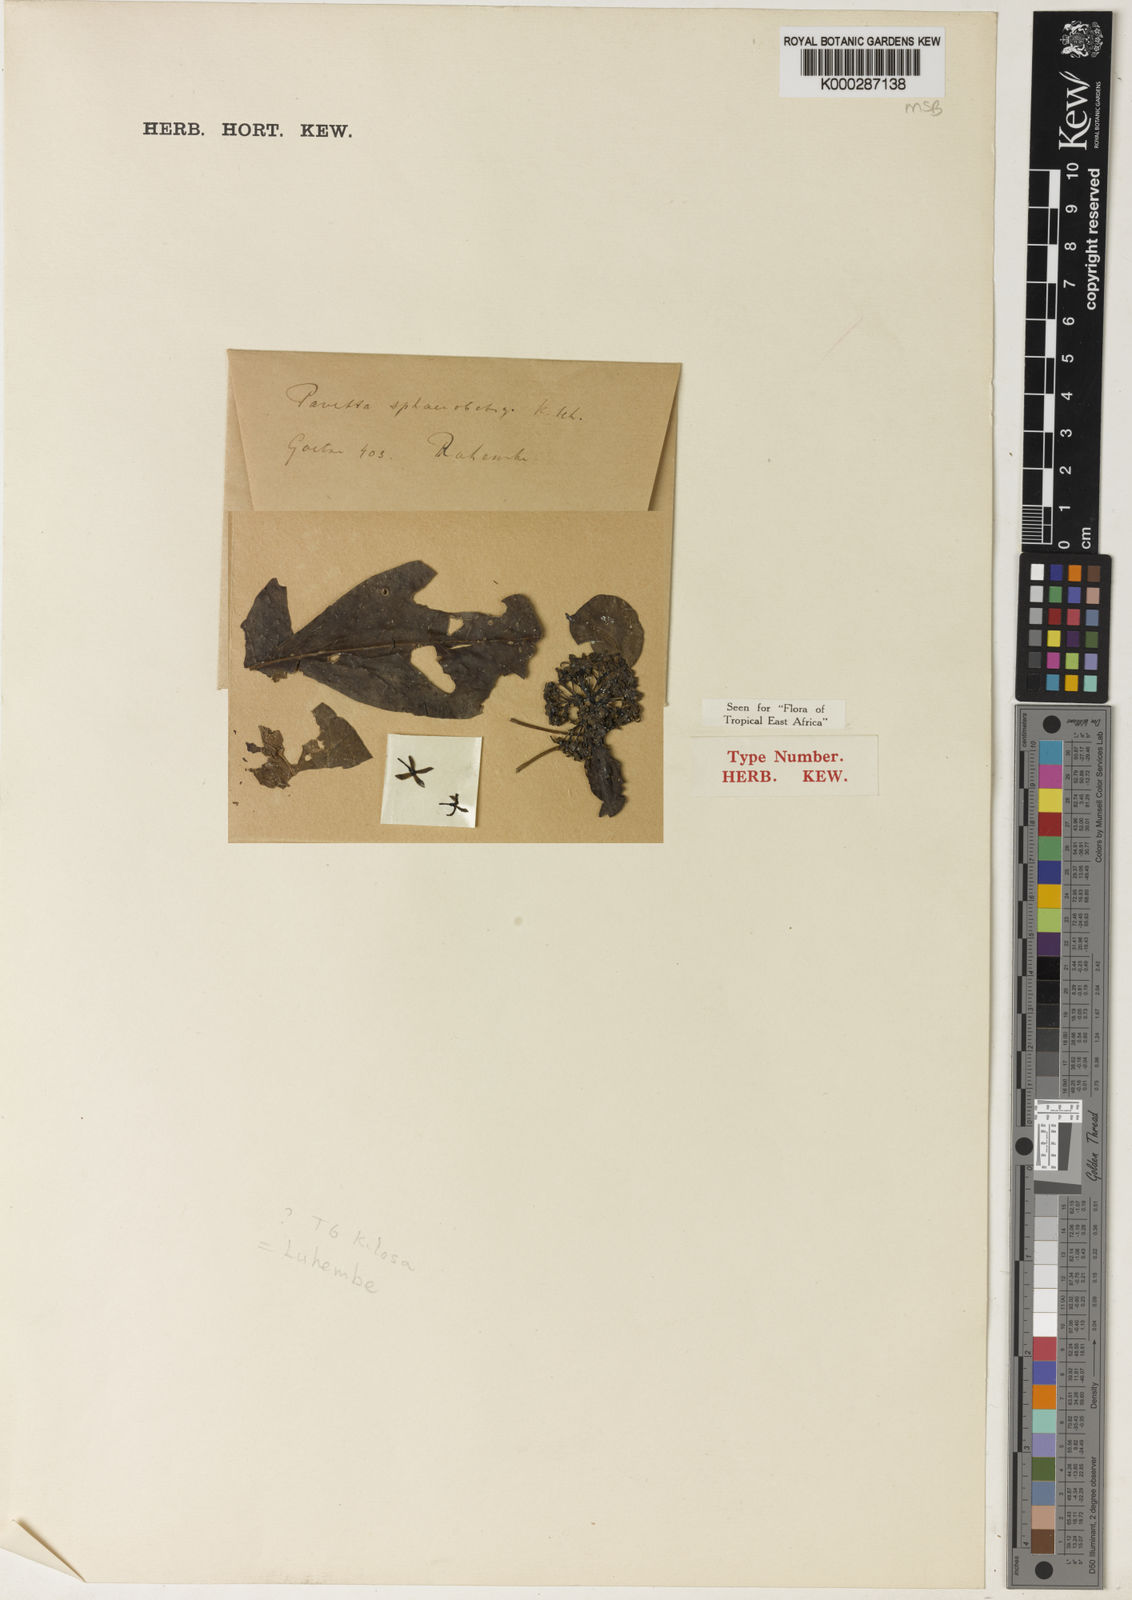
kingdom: Plantae
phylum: Tracheophyta
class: Magnoliopsida
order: Gentianales
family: Rubiaceae
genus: Pavetta
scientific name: Pavetta sphaerobotrys
